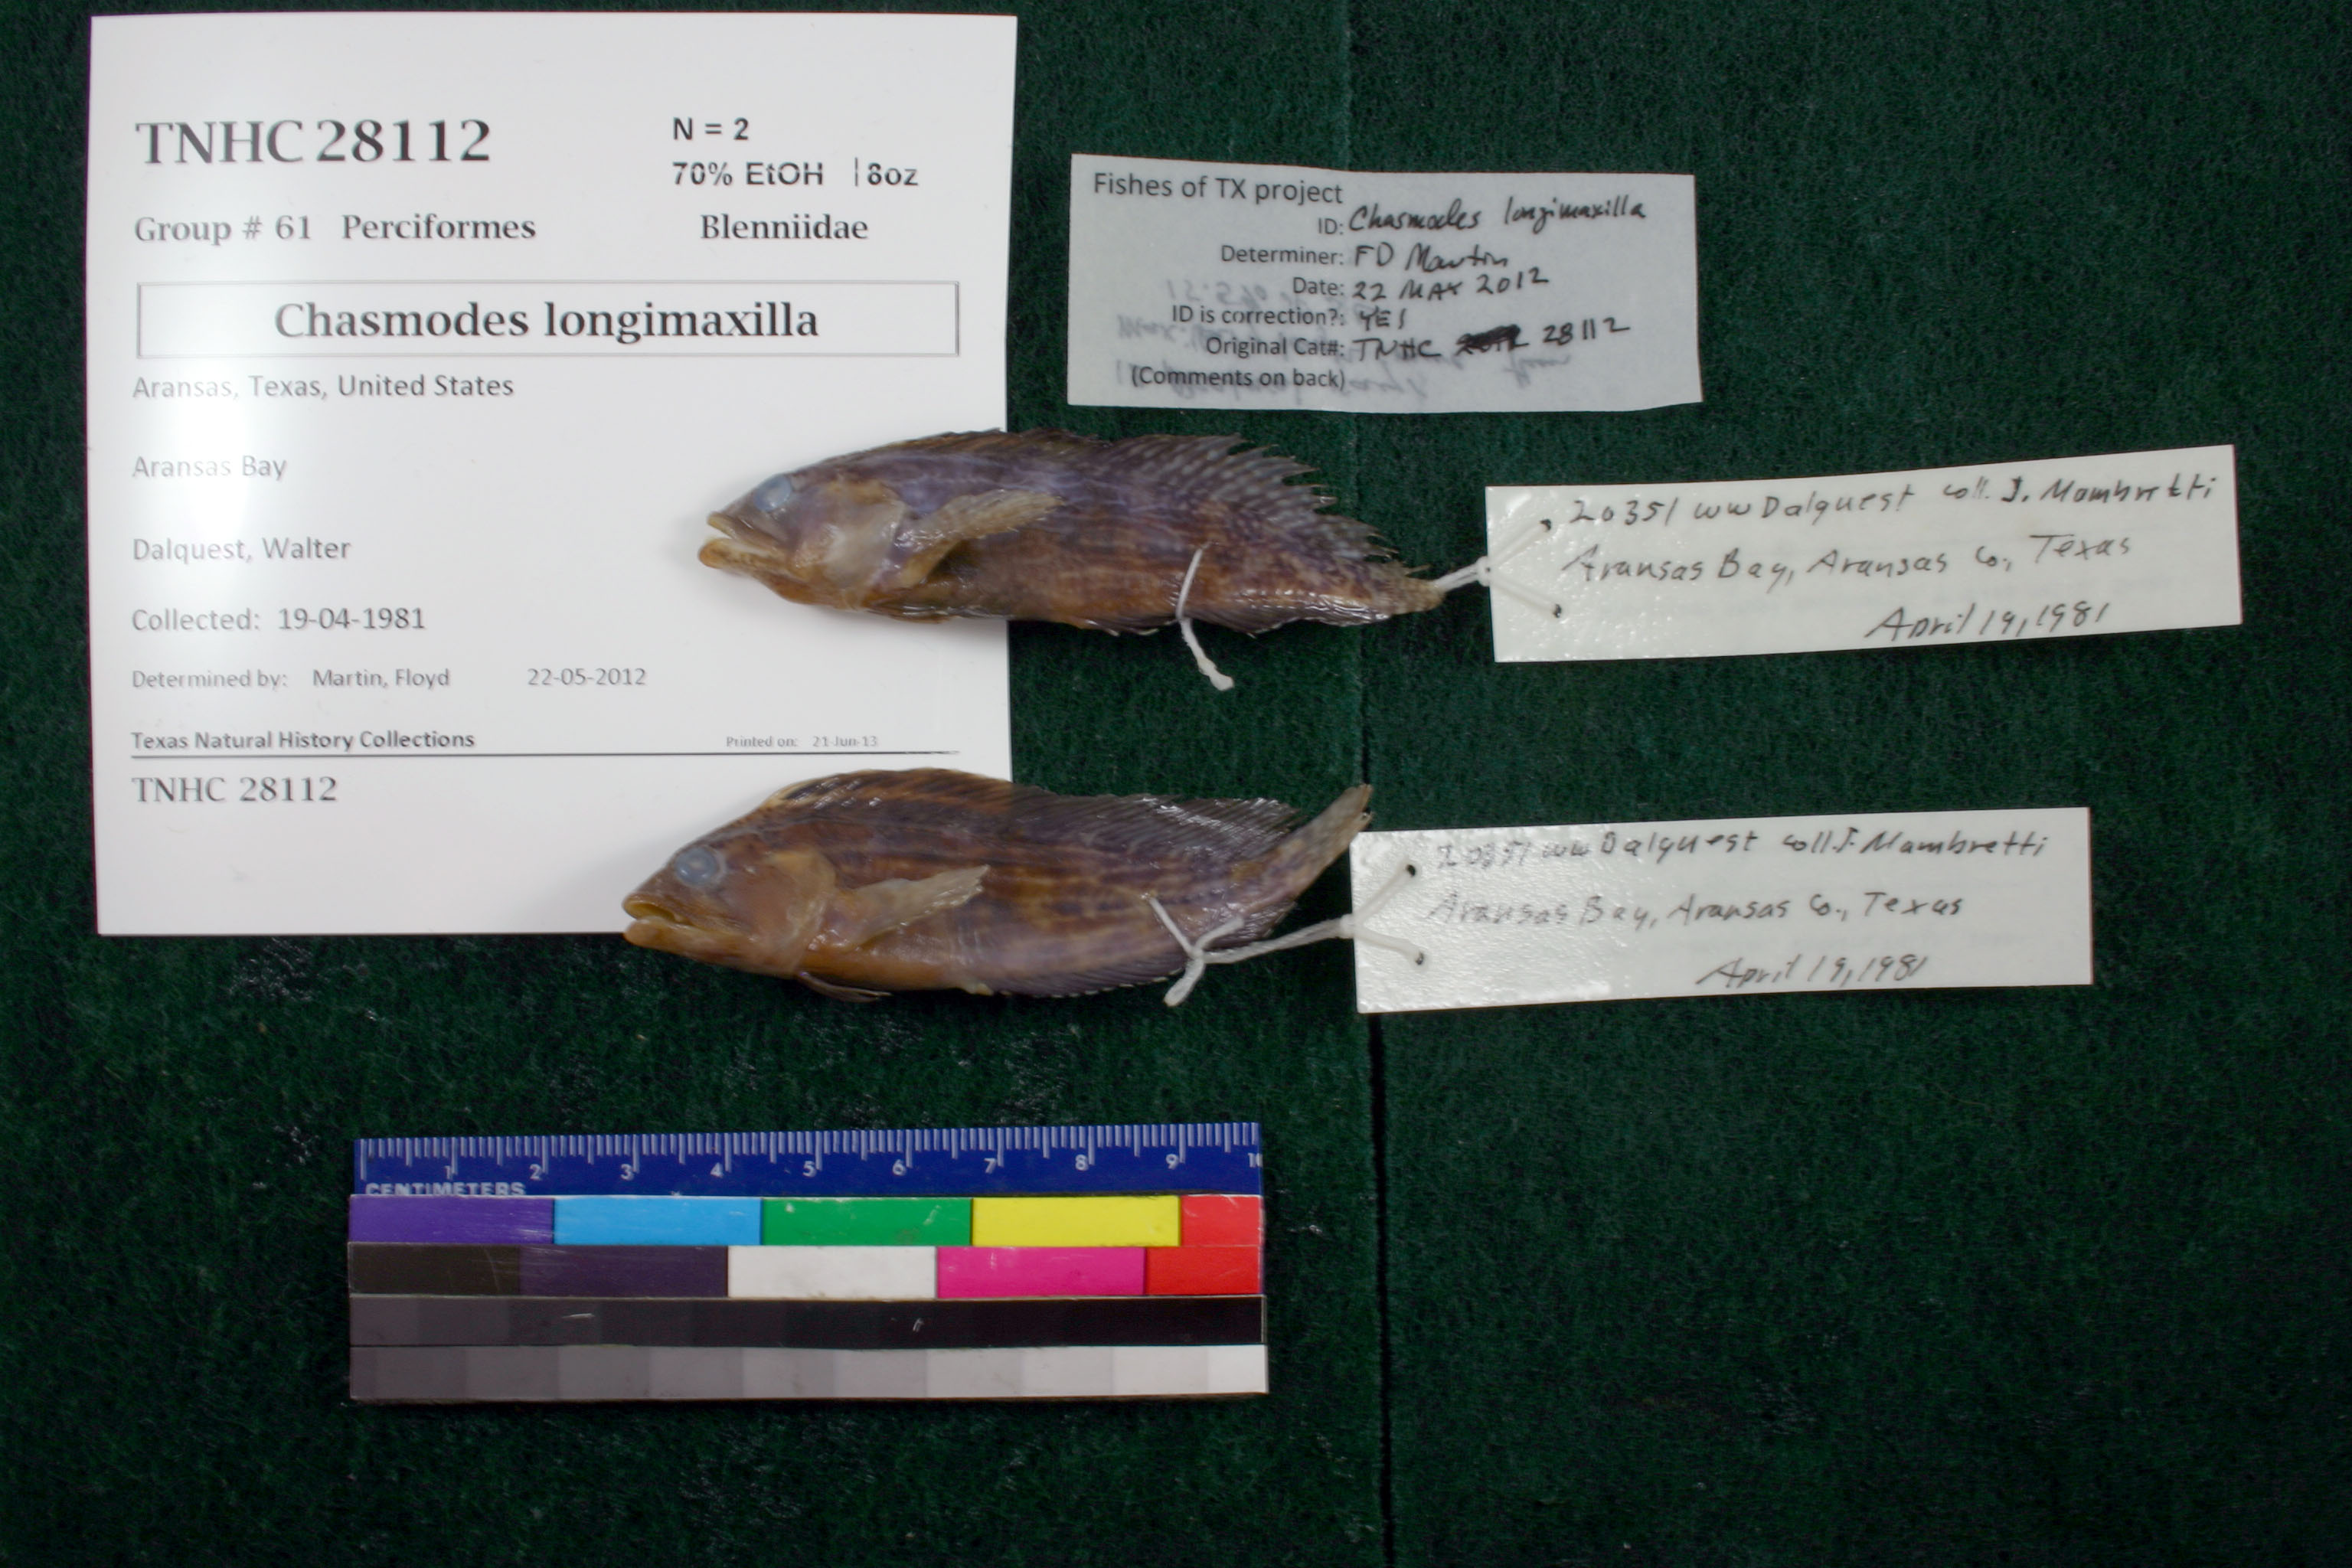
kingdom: Animalia
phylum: Chordata
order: Perciformes
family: Blenniidae
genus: Chasmodes
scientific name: Chasmodes longimaxilla
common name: Longjaw blenny
